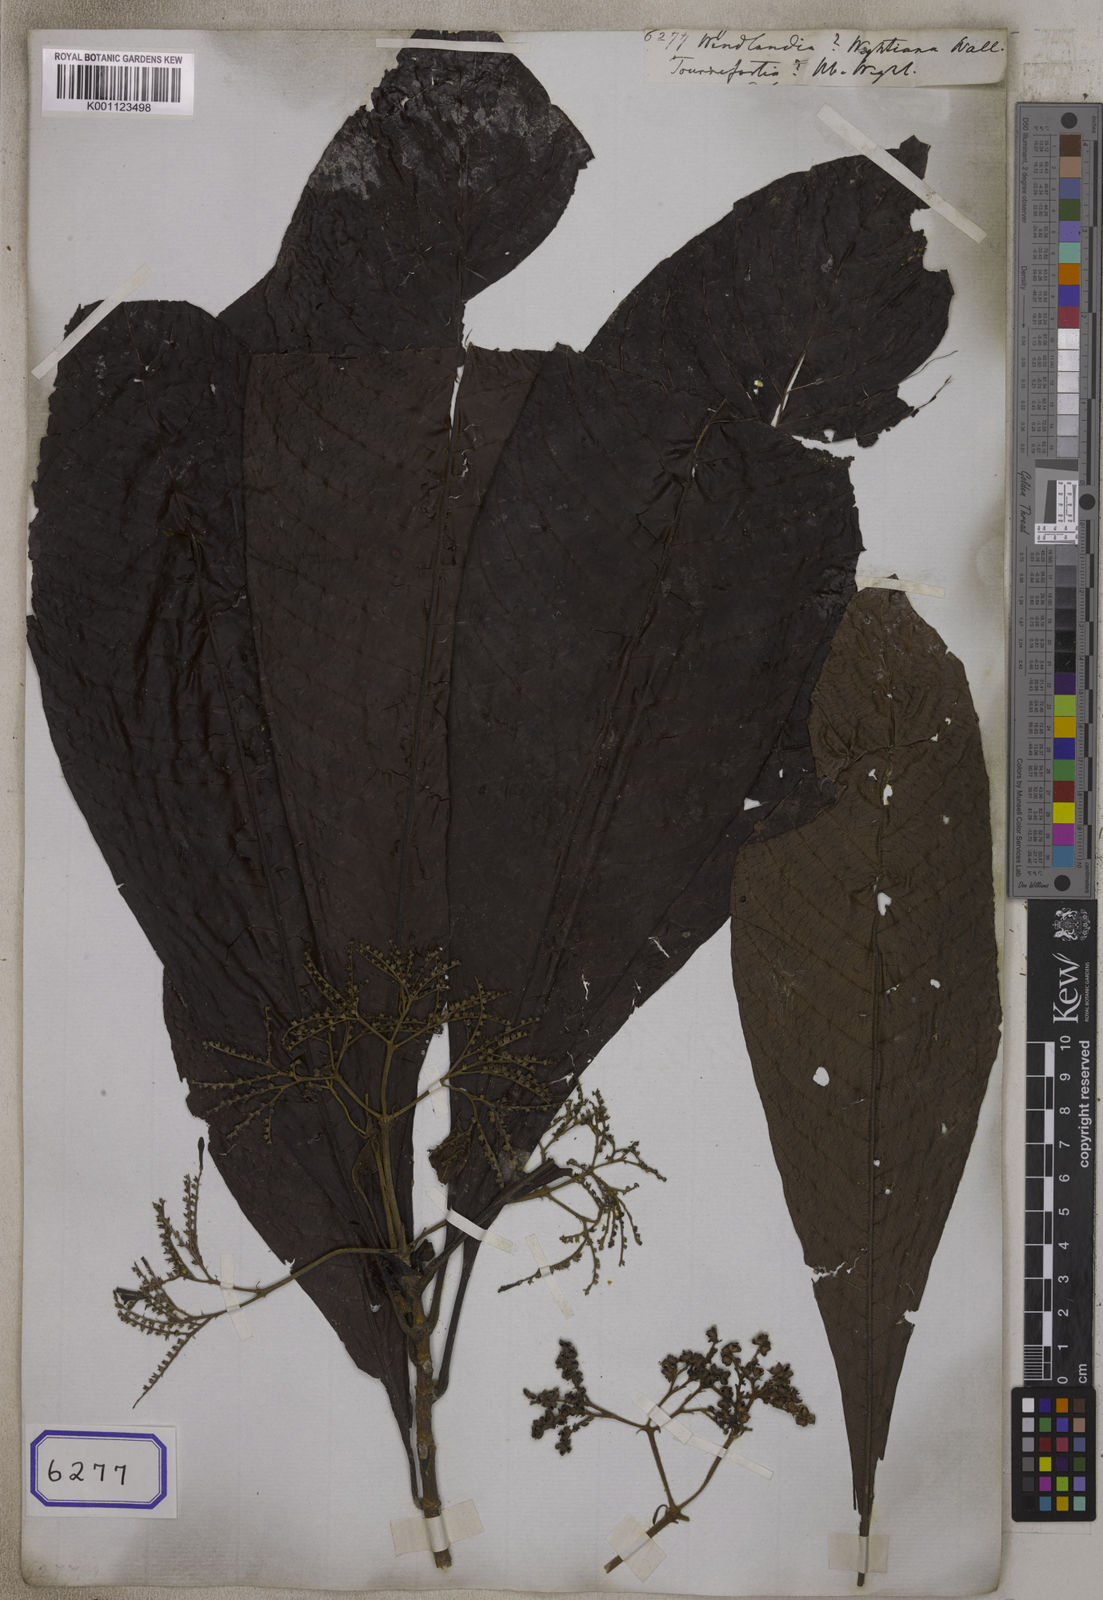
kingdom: Plantae
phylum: Tracheophyta
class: Magnoliopsida
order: Gentianales
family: Rubiaceae
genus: Wendlandia
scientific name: Wendlandia
